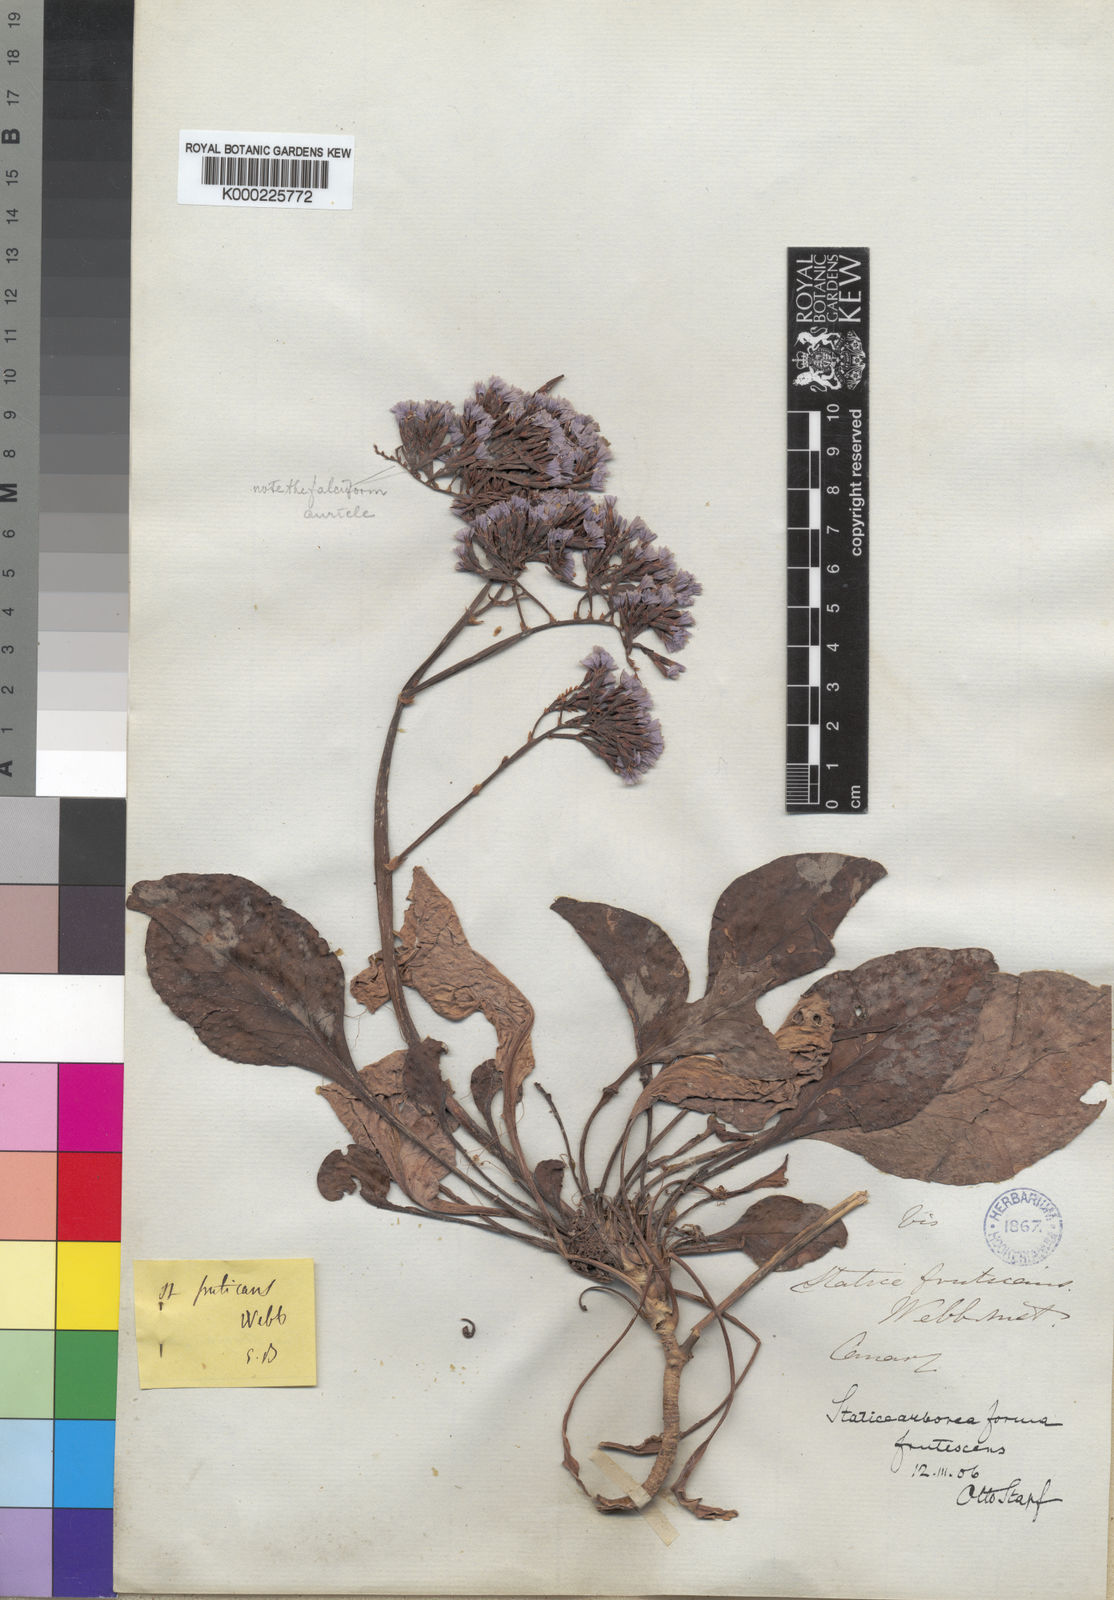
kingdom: Plantae
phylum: Tracheophyta
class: Magnoliopsida
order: Caryophyllales
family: Plumbaginaceae
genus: Limonium
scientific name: Limonium arboreum
